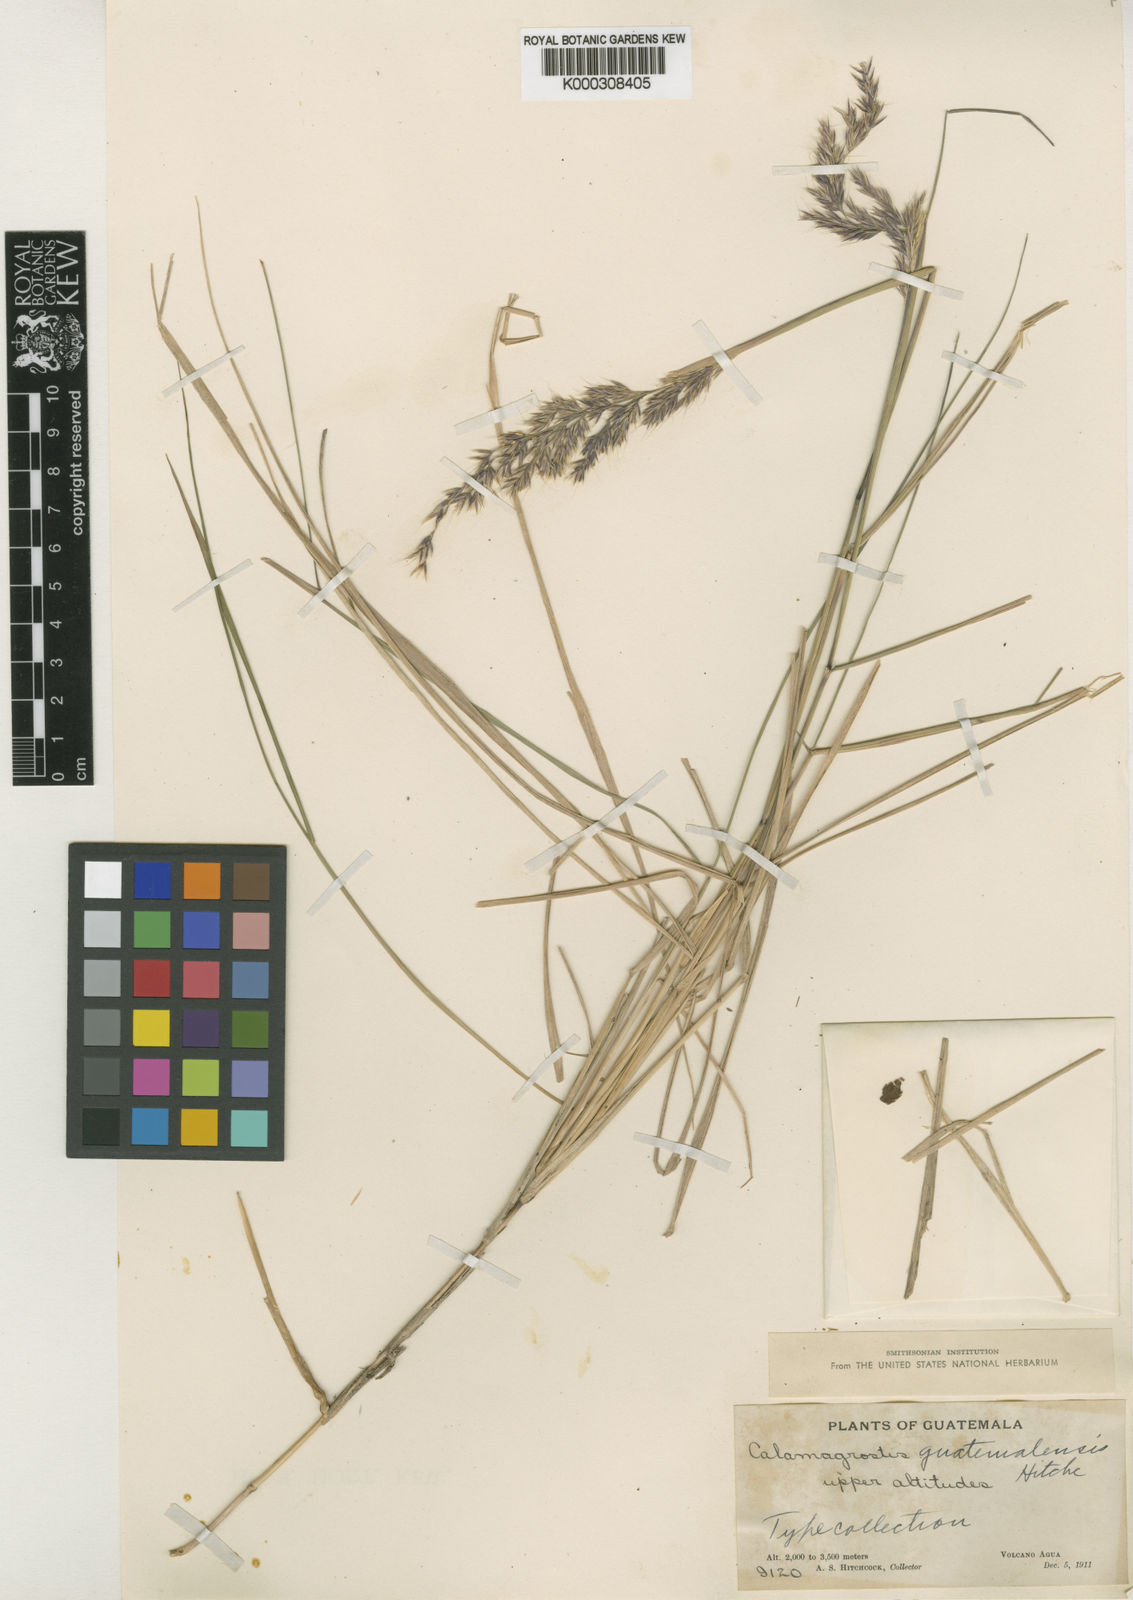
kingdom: Plantae
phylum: Tracheophyta
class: Liliopsida
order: Poales
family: Poaceae
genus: Calamagrostis
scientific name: Calamagrostis
